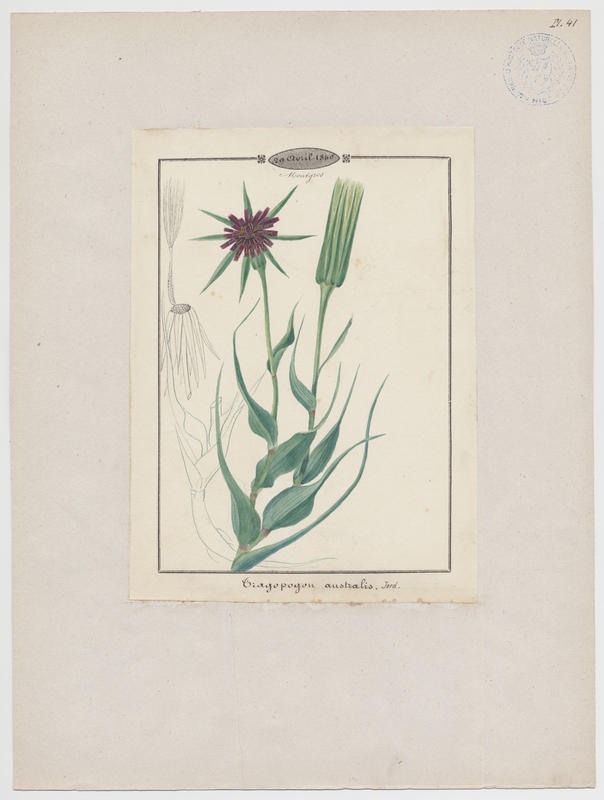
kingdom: Plantae
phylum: Tracheophyta
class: Magnoliopsida
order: Asterales
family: Asteraceae
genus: Tragopogon
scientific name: Tragopogon
